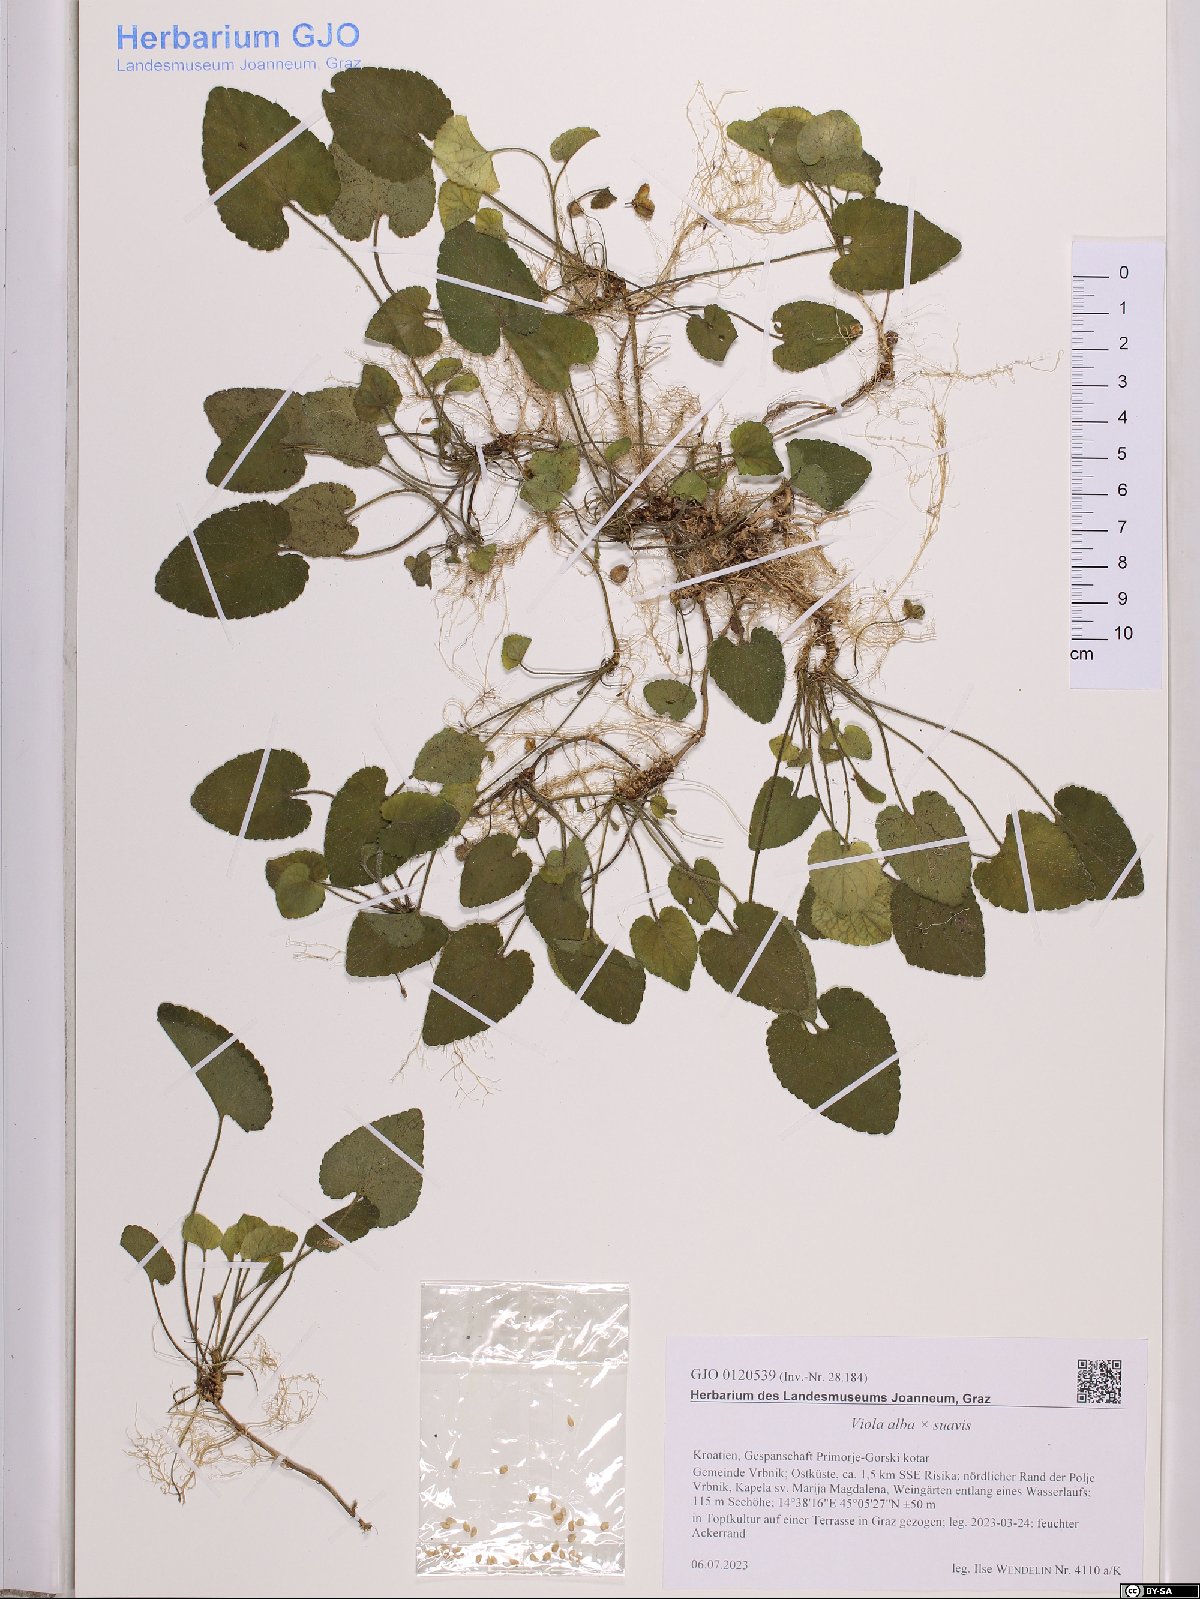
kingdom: Plantae
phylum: Tracheophyta
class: Magnoliopsida
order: Malpighiales
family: Violaceae
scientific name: Violaceae
